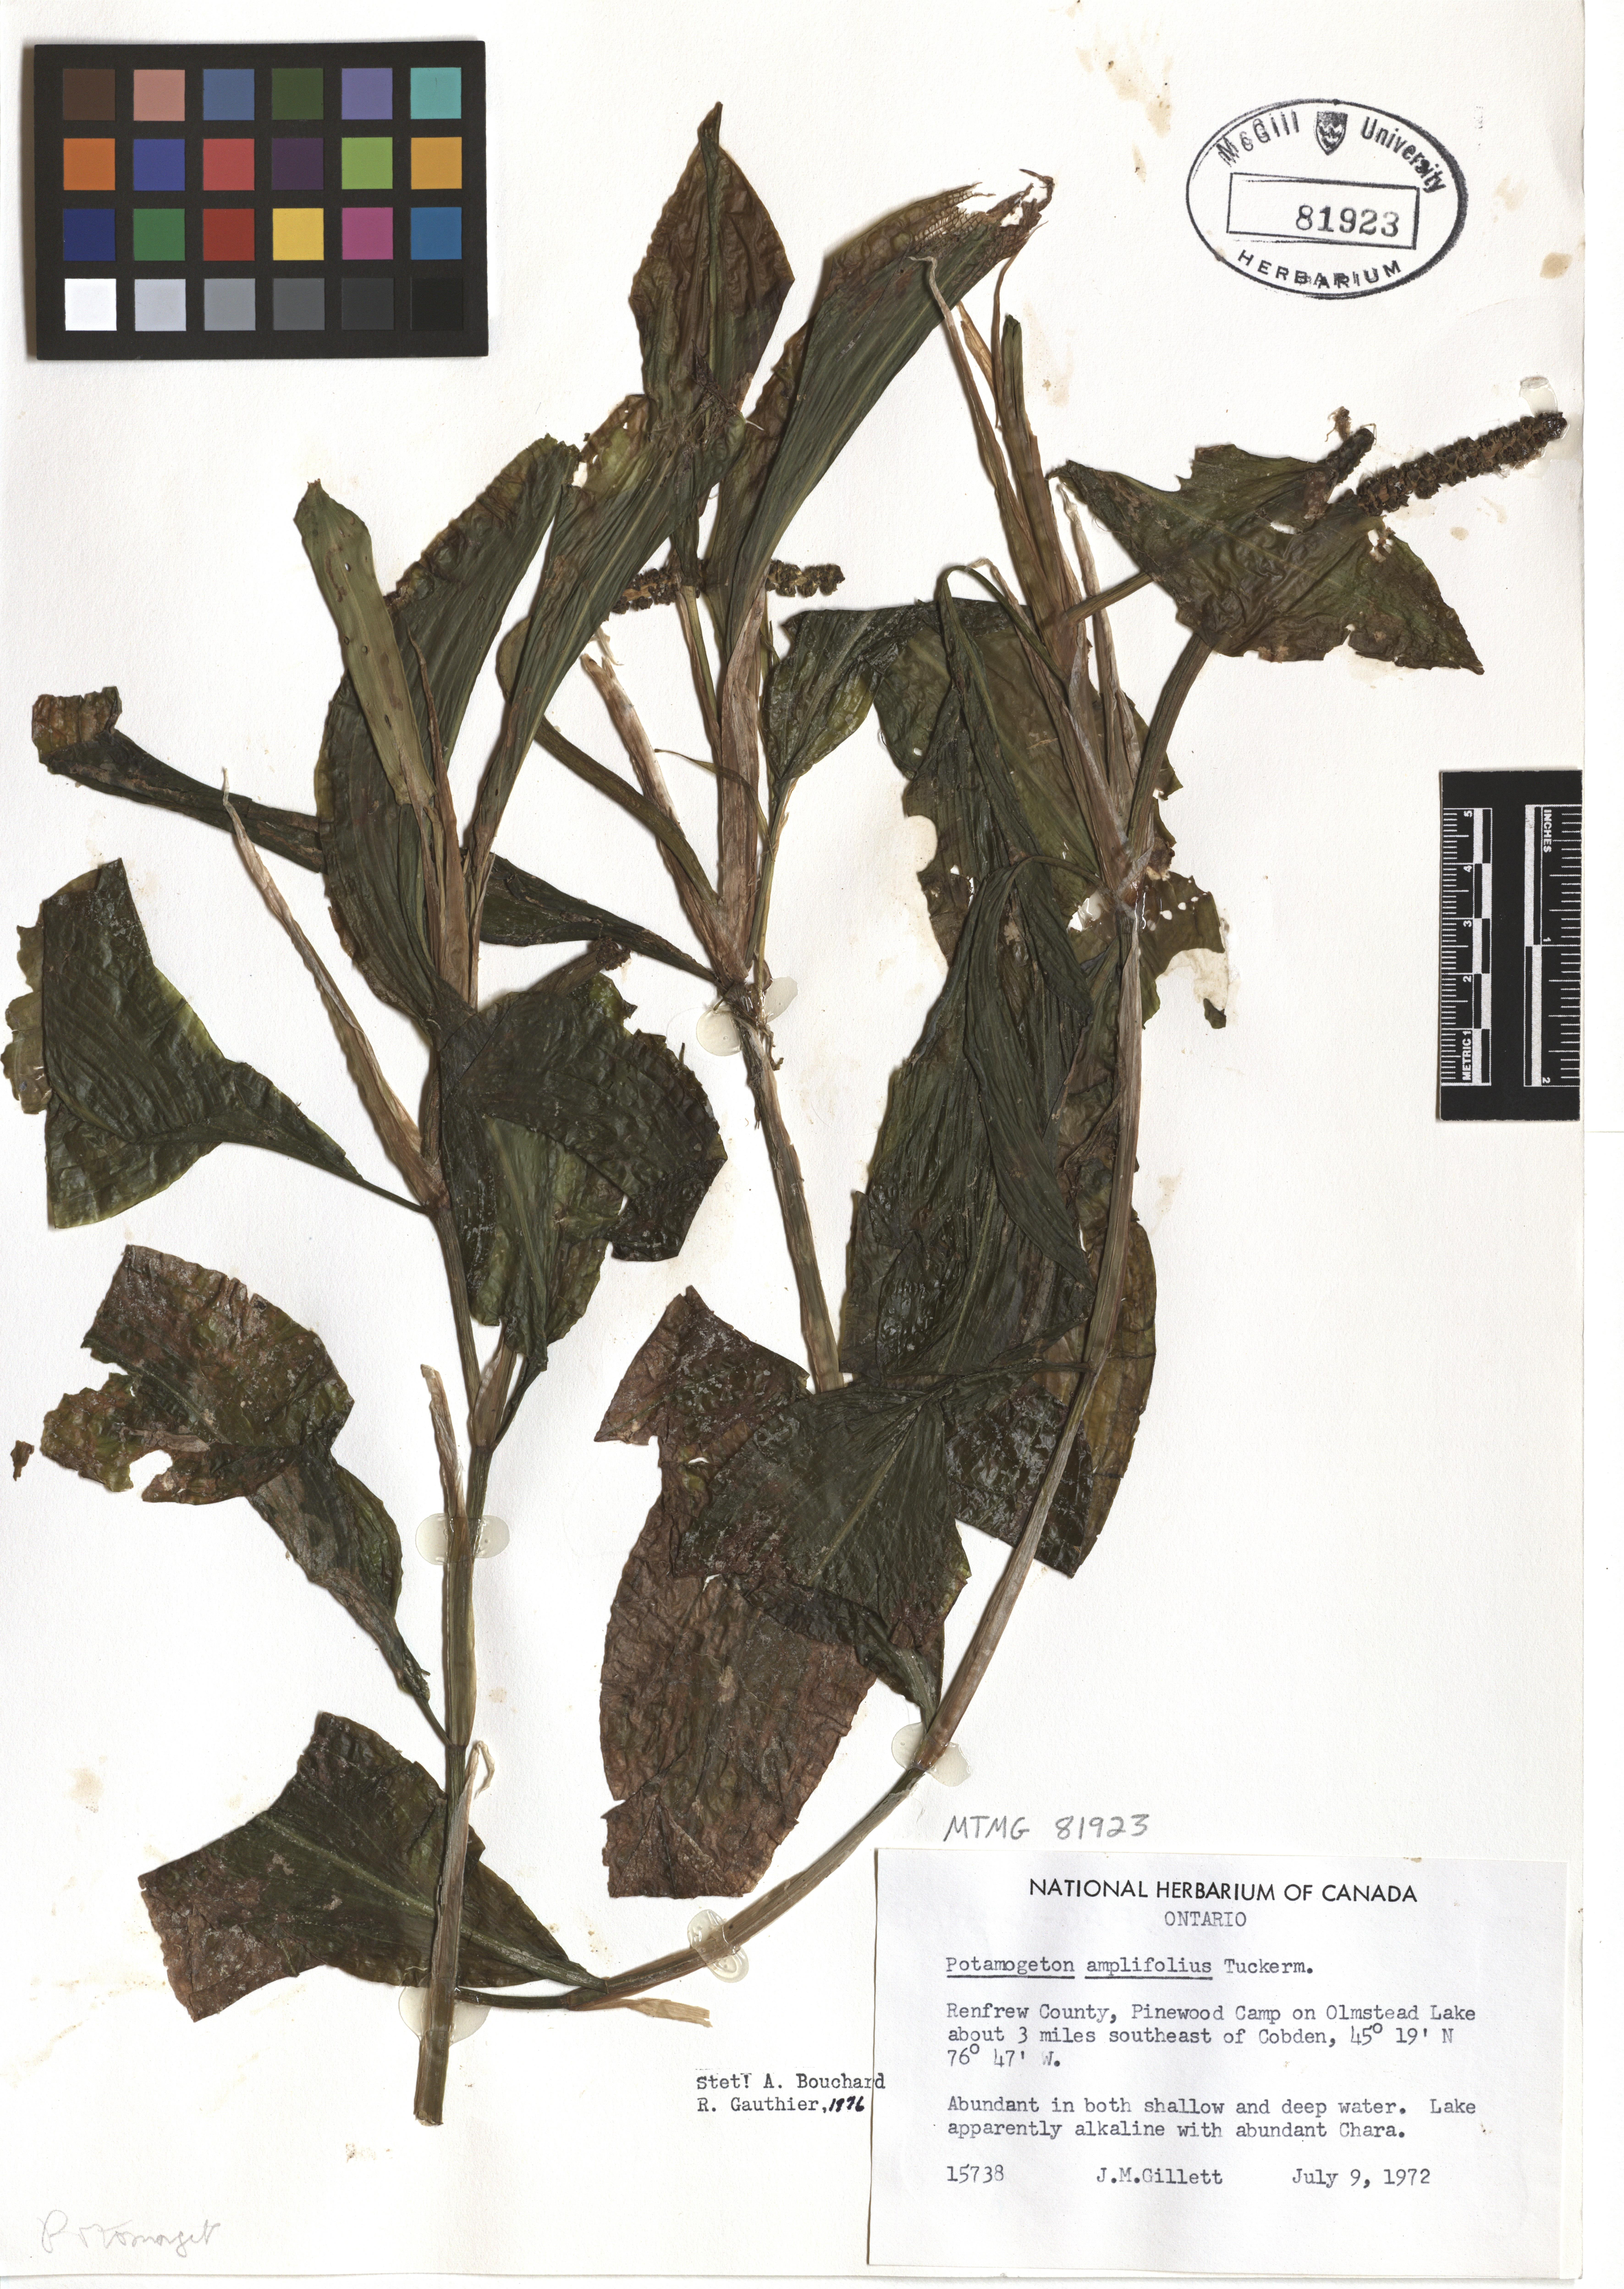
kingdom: Plantae
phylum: Tracheophyta
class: Liliopsida
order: Alismatales
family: Potamogetonaceae
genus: Potamogeton
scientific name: Potamogeton amplifolius
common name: Broad-leaved pondweed
